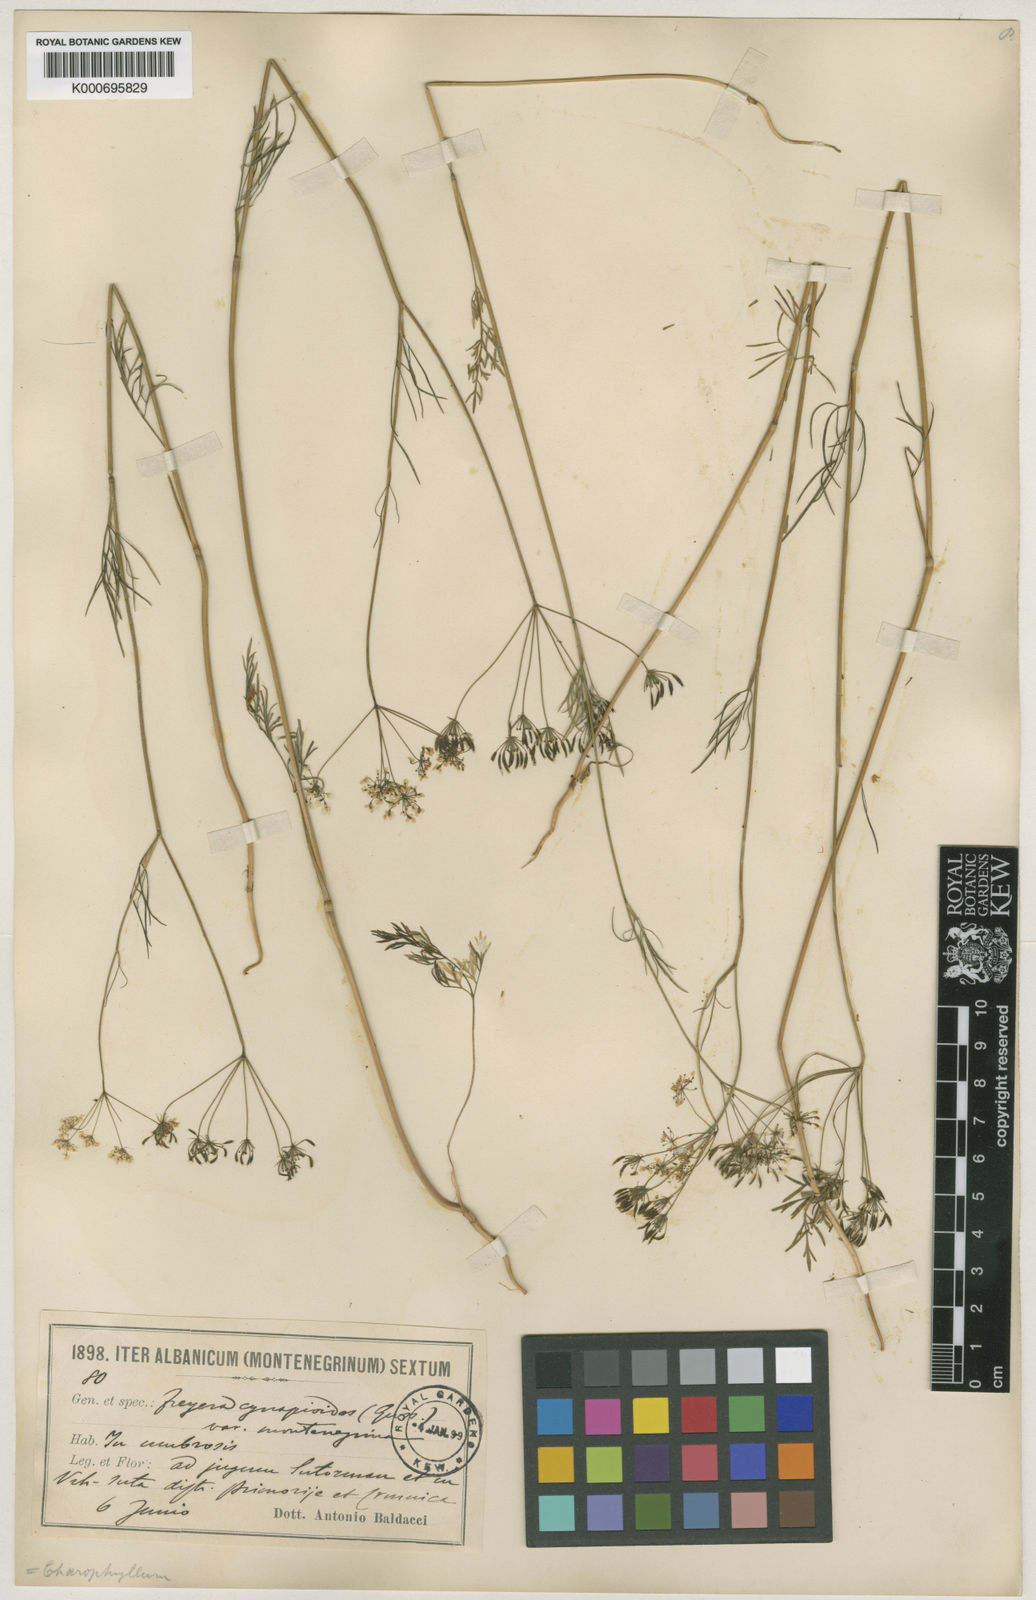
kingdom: Plantae
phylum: Tracheophyta
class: Magnoliopsida
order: Apiales
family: Apiaceae
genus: Geocaryum
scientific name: Geocaryum tuberosum
